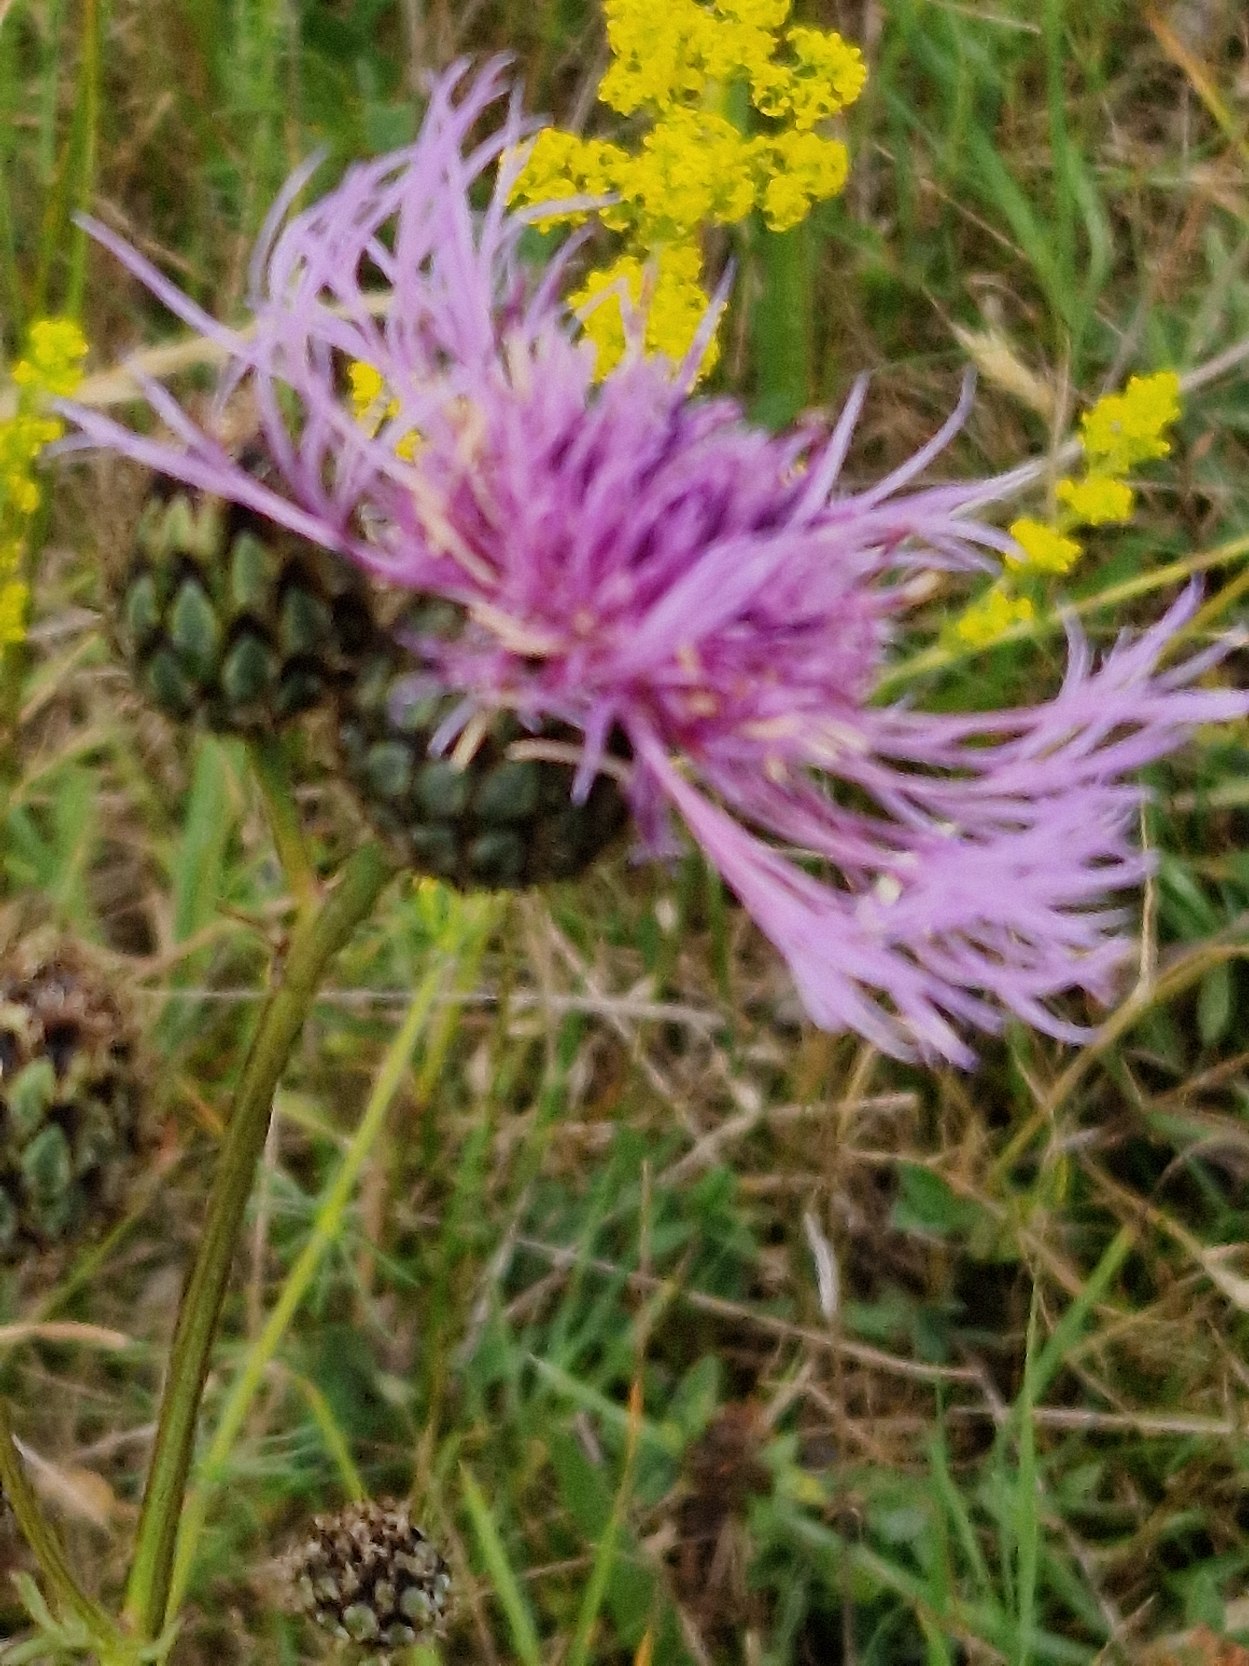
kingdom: Plantae
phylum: Tracheophyta
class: Magnoliopsida
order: Asterales
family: Asteraceae
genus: Centaurea
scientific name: Centaurea scabiosa
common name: Stor knopurt
